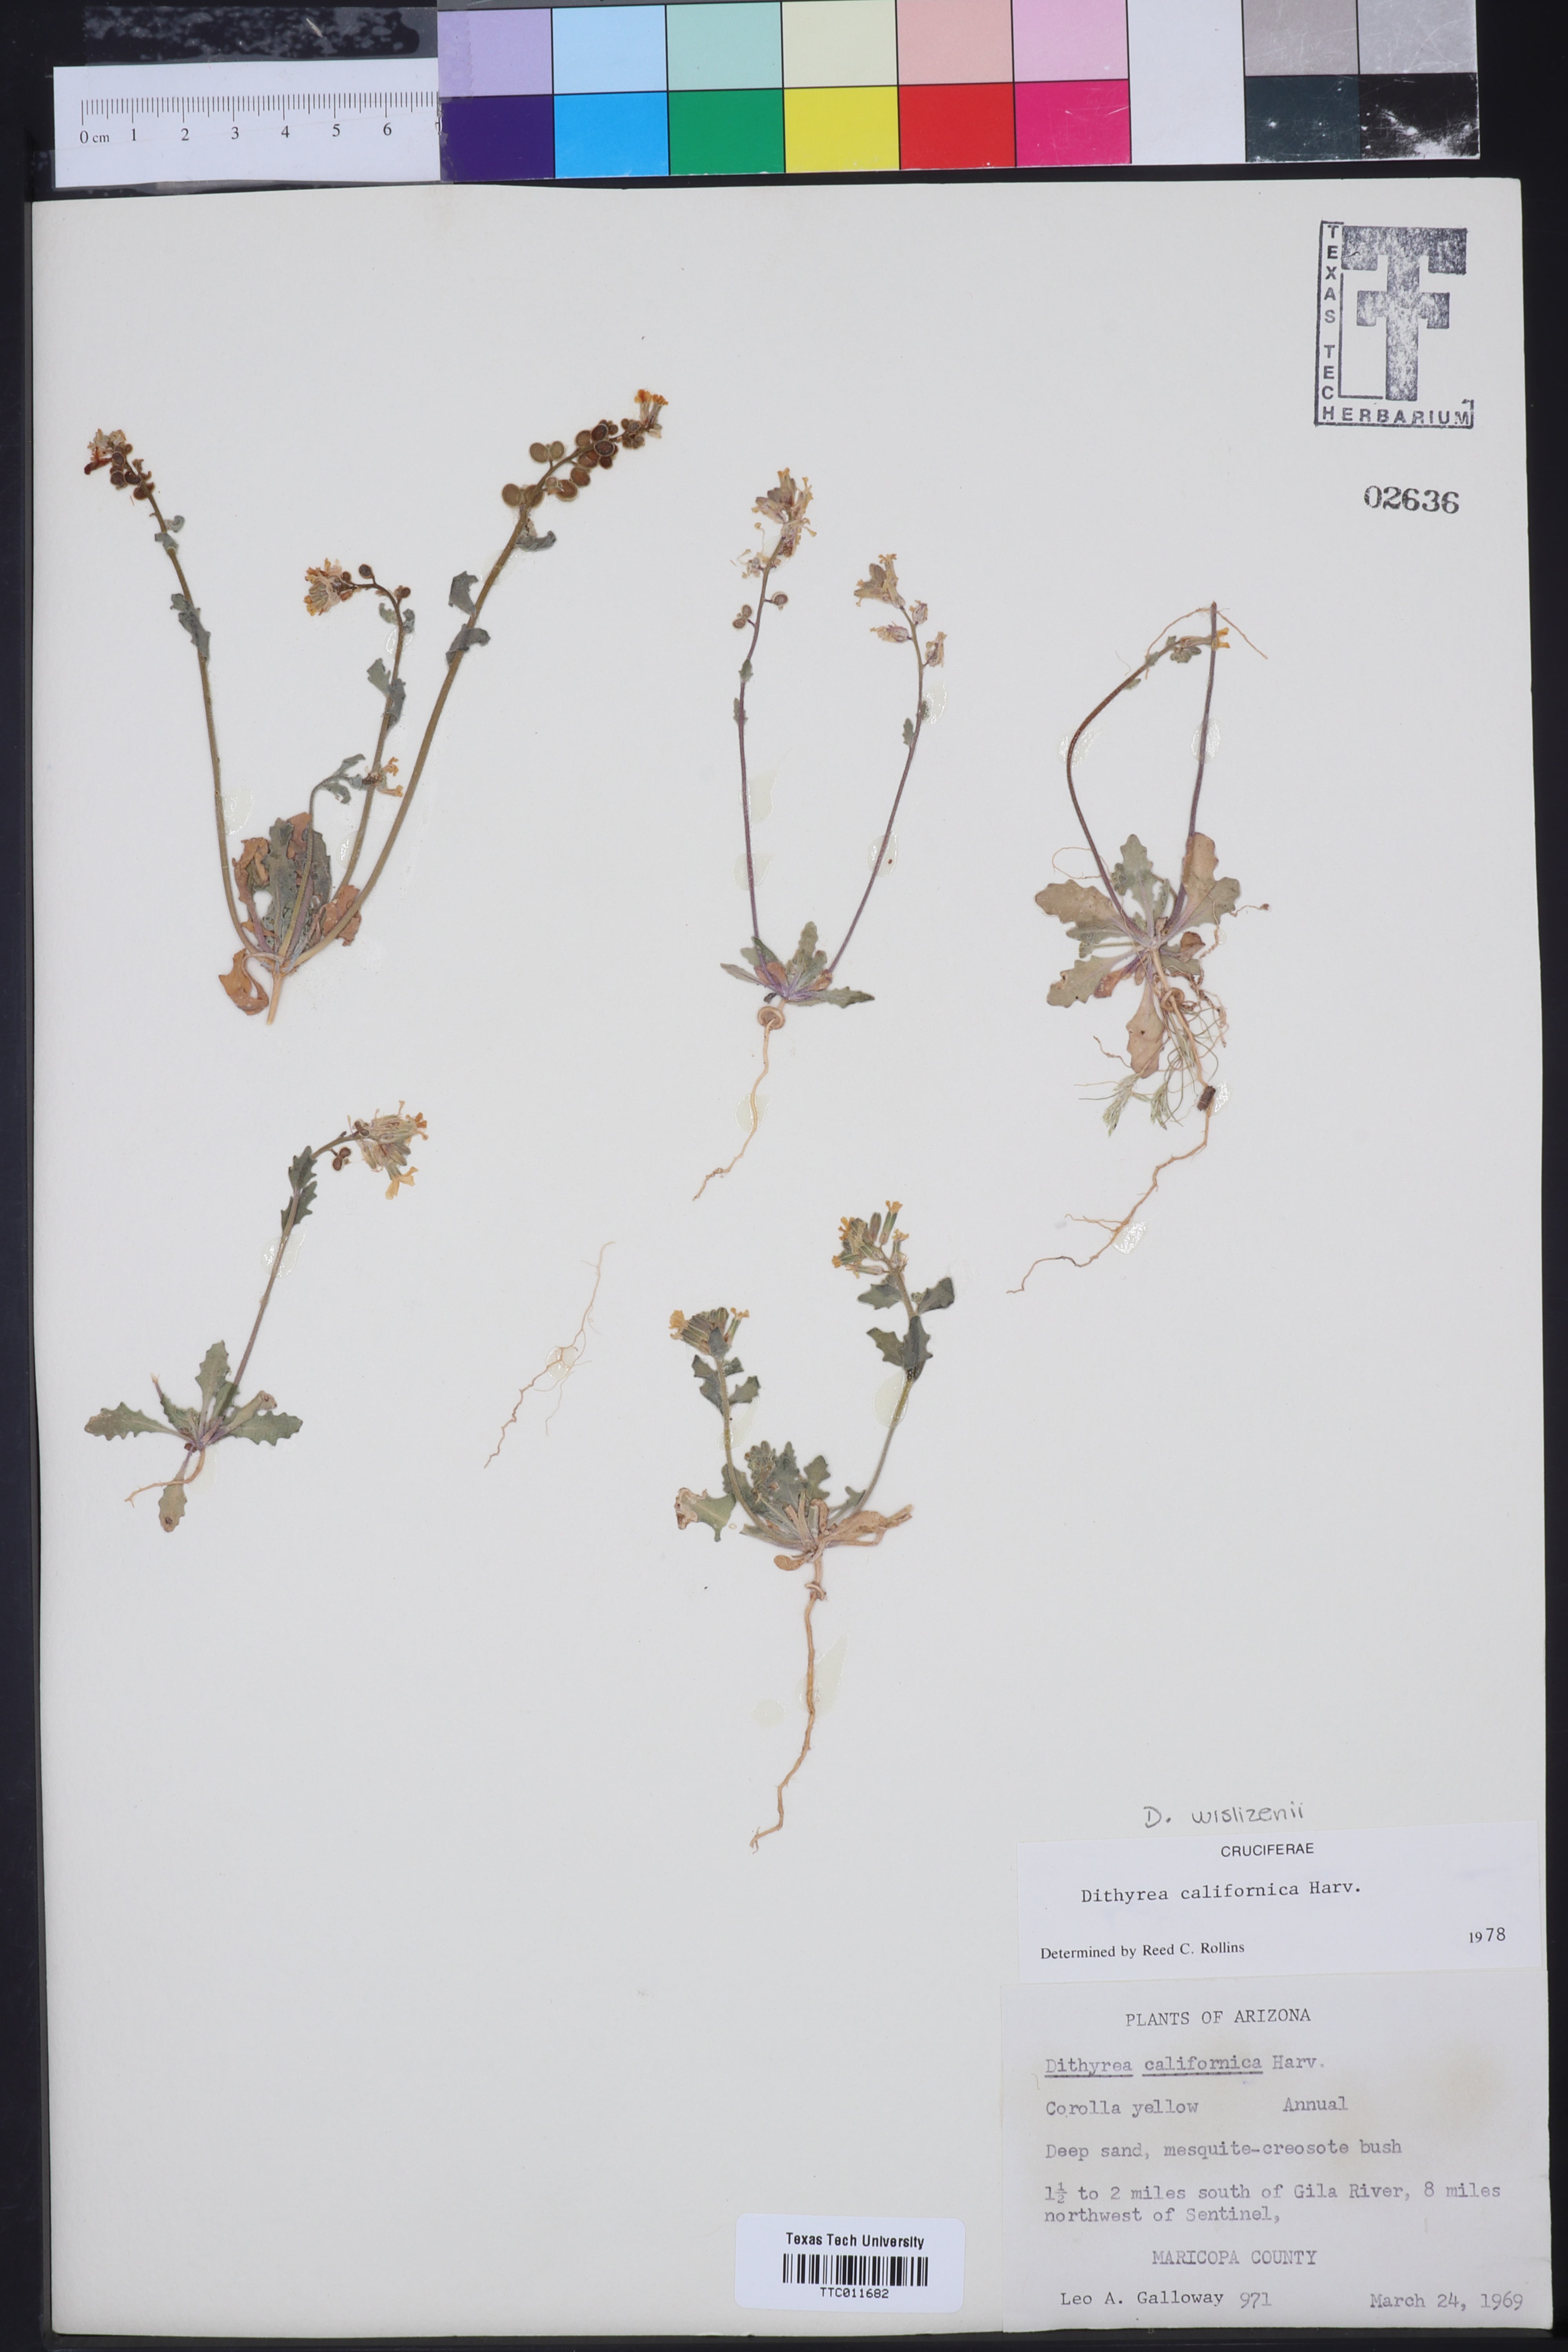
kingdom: Plantae
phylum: Tracheophyta
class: Magnoliopsida
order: Brassicales
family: Brassicaceae
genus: Dithyrea
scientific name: Dithyrea californica
